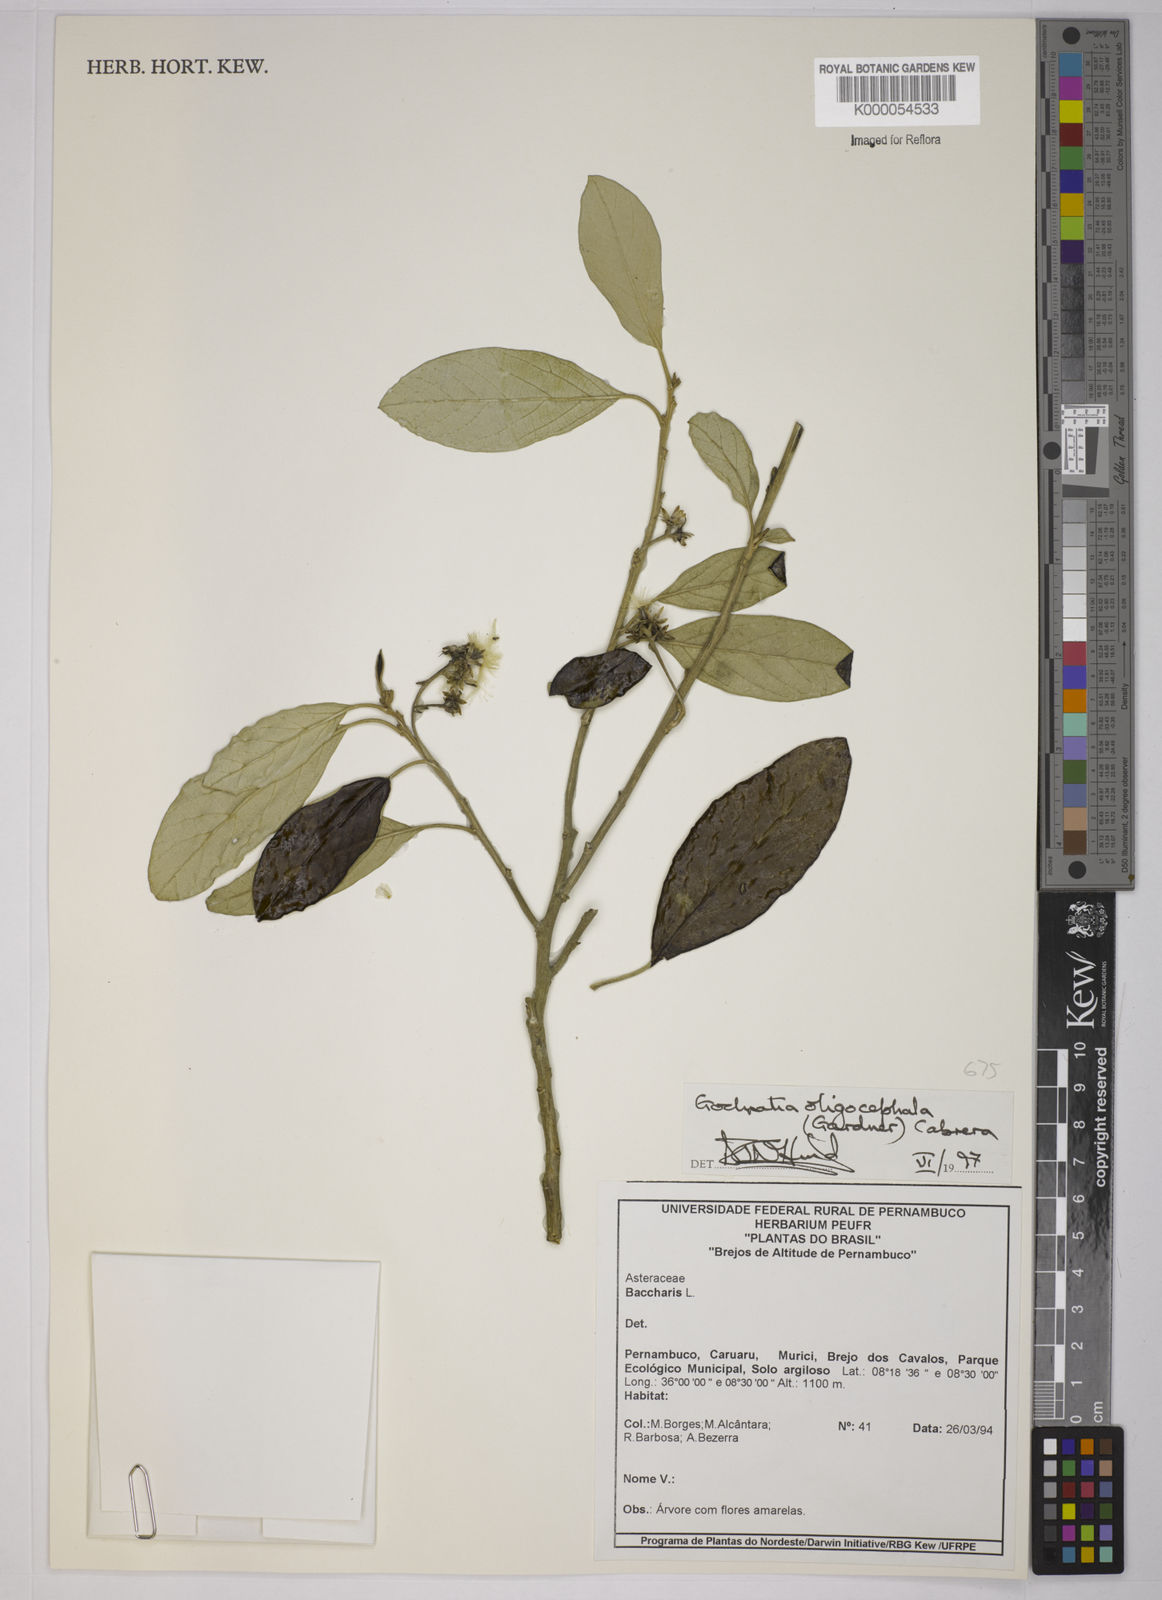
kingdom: Plantae
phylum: Tracheophyta
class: Magnoliopsida
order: Asterales
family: Asteraceae
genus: Moquiniastrum
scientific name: Moquiniastrum oligocephalum
